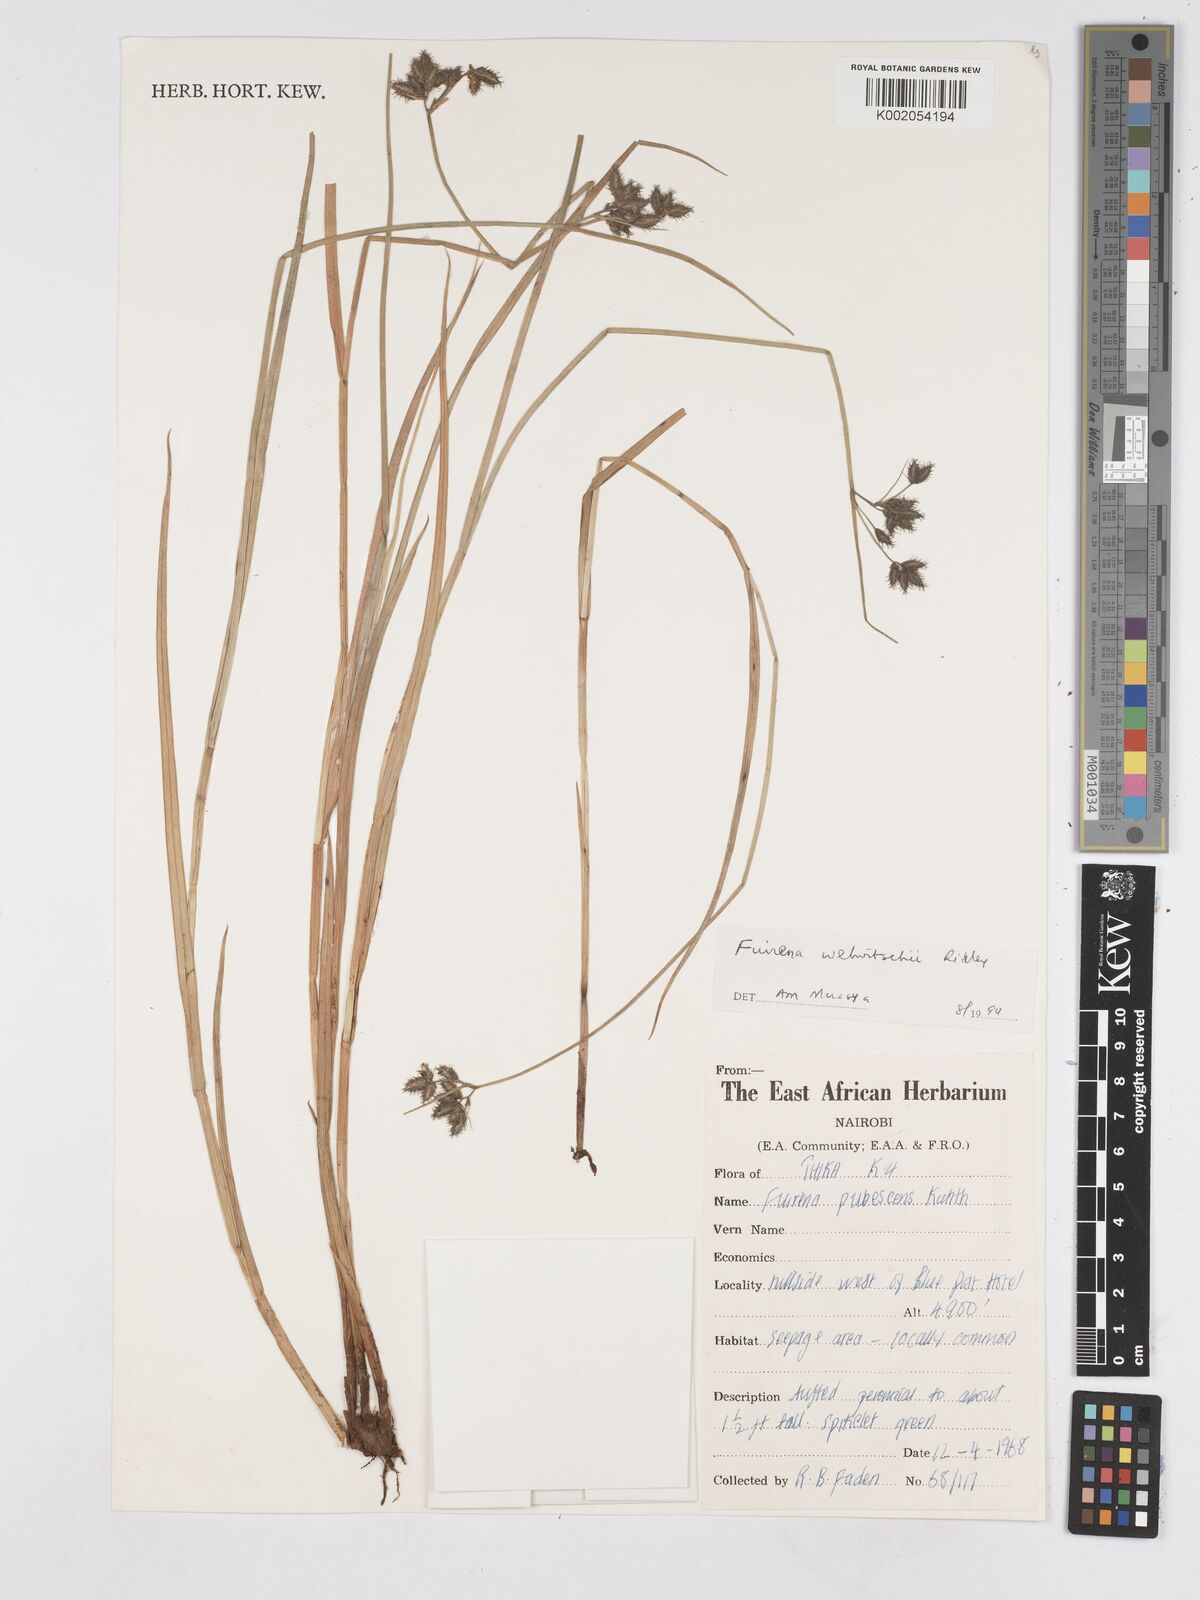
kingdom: Plantae
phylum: Tracheophyta
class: Liliopsida
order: Poales
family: Cyperaceae
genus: Fuirena
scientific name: Fuirena welwitschii
